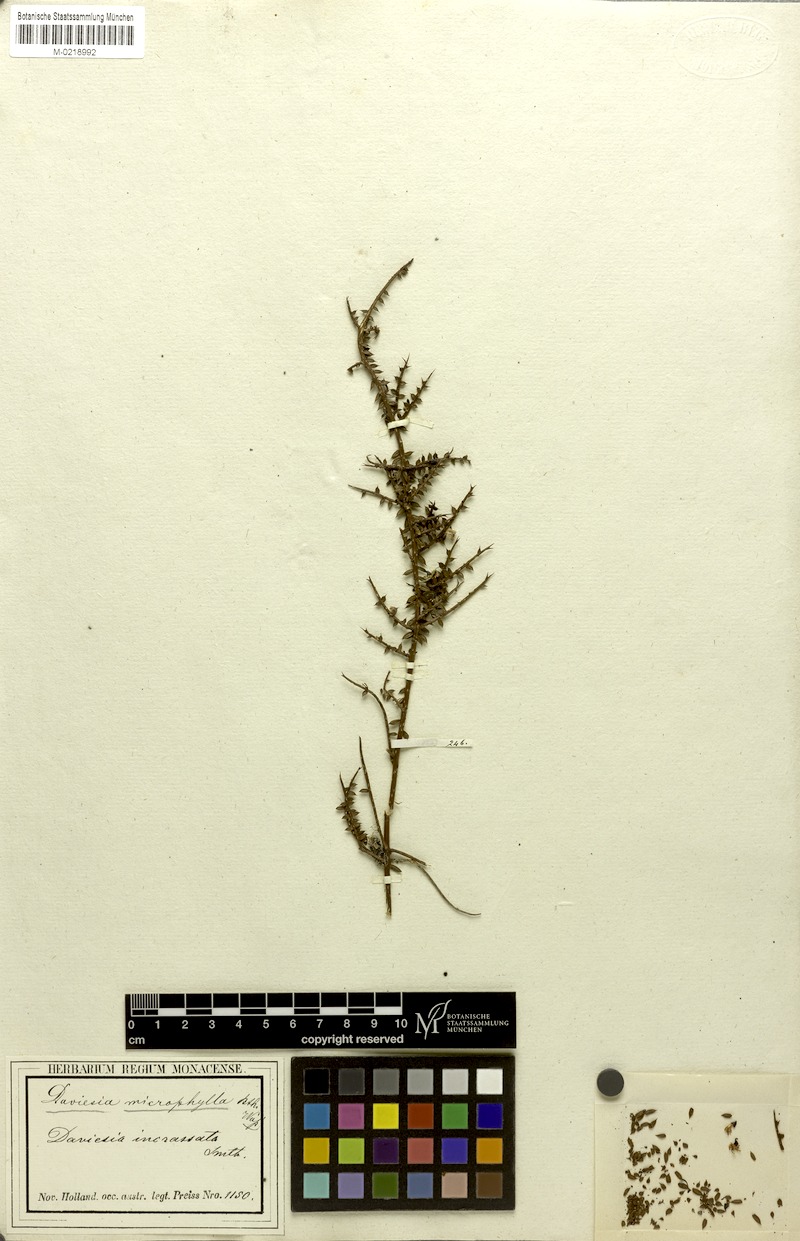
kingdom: Plantae
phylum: Tracheophyta
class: Magnoliopsida
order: Fabales
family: Fabaceae
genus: Daviesia
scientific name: Daviesia microphylla
